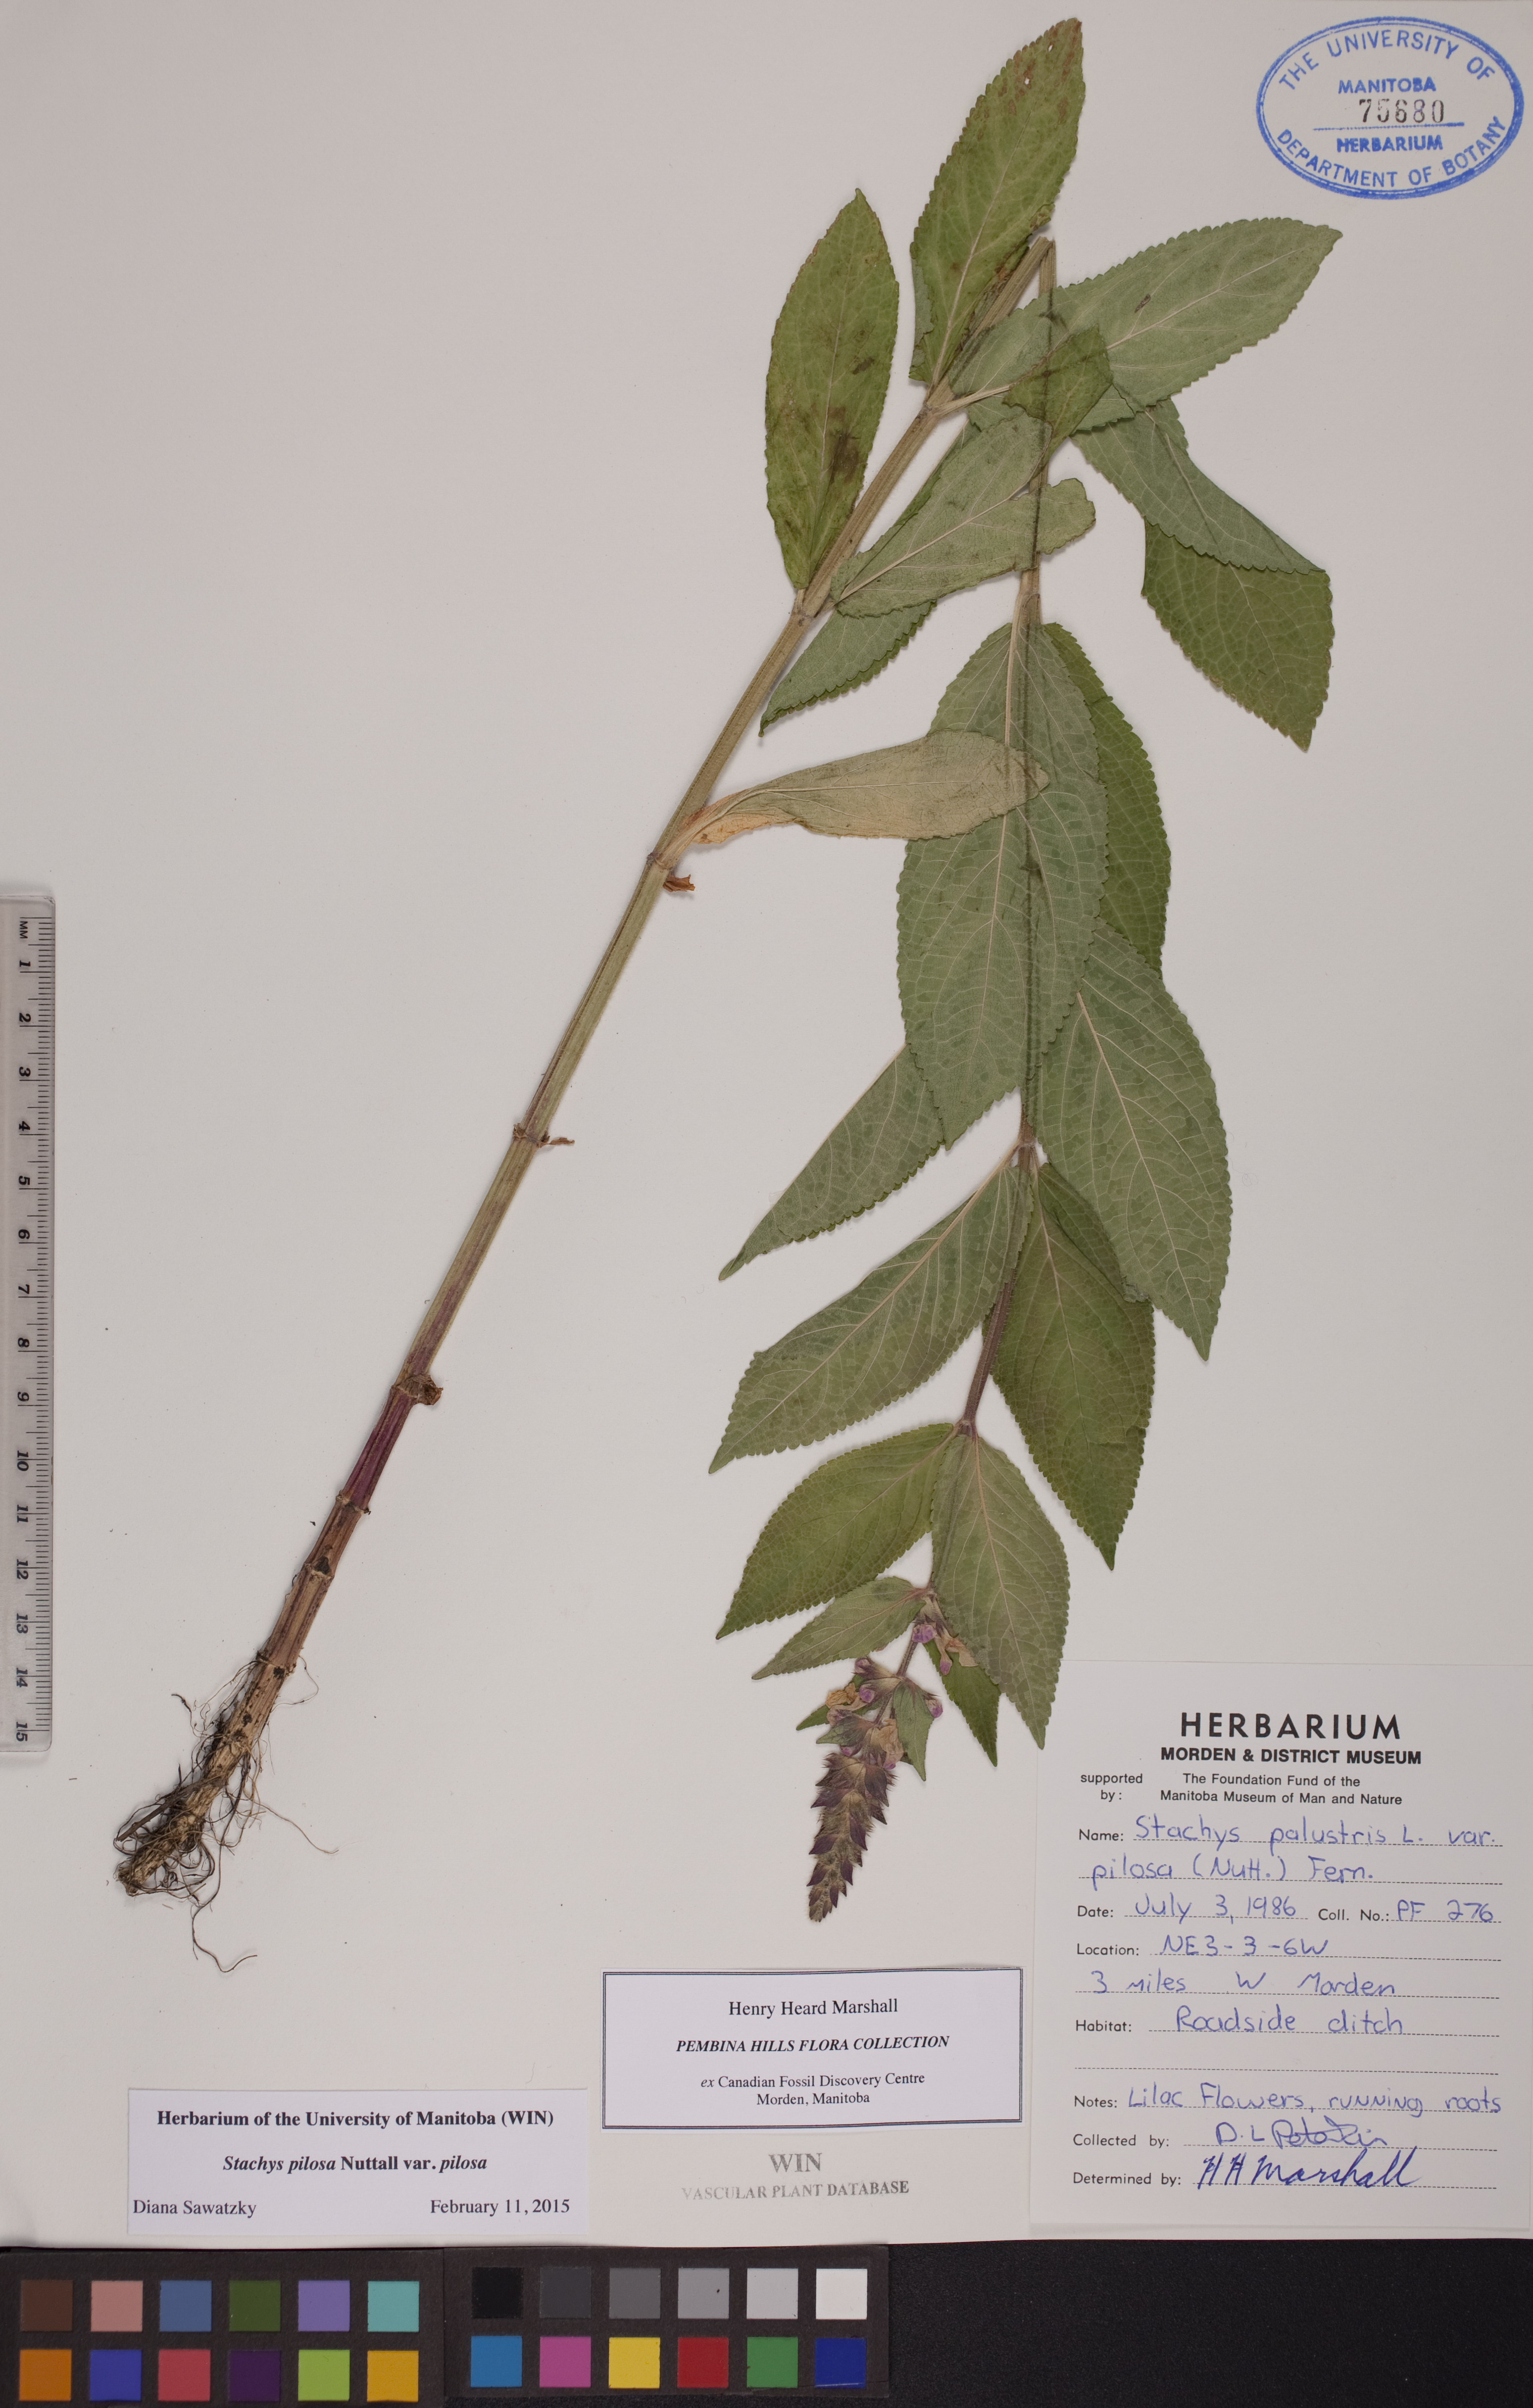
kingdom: Plantae
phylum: Tracheophyta
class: Magnoliopsida
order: Lamiales
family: Lamiaceae
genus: Stachys
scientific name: Stachys pilosa
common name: Hairy hedge-nettle
